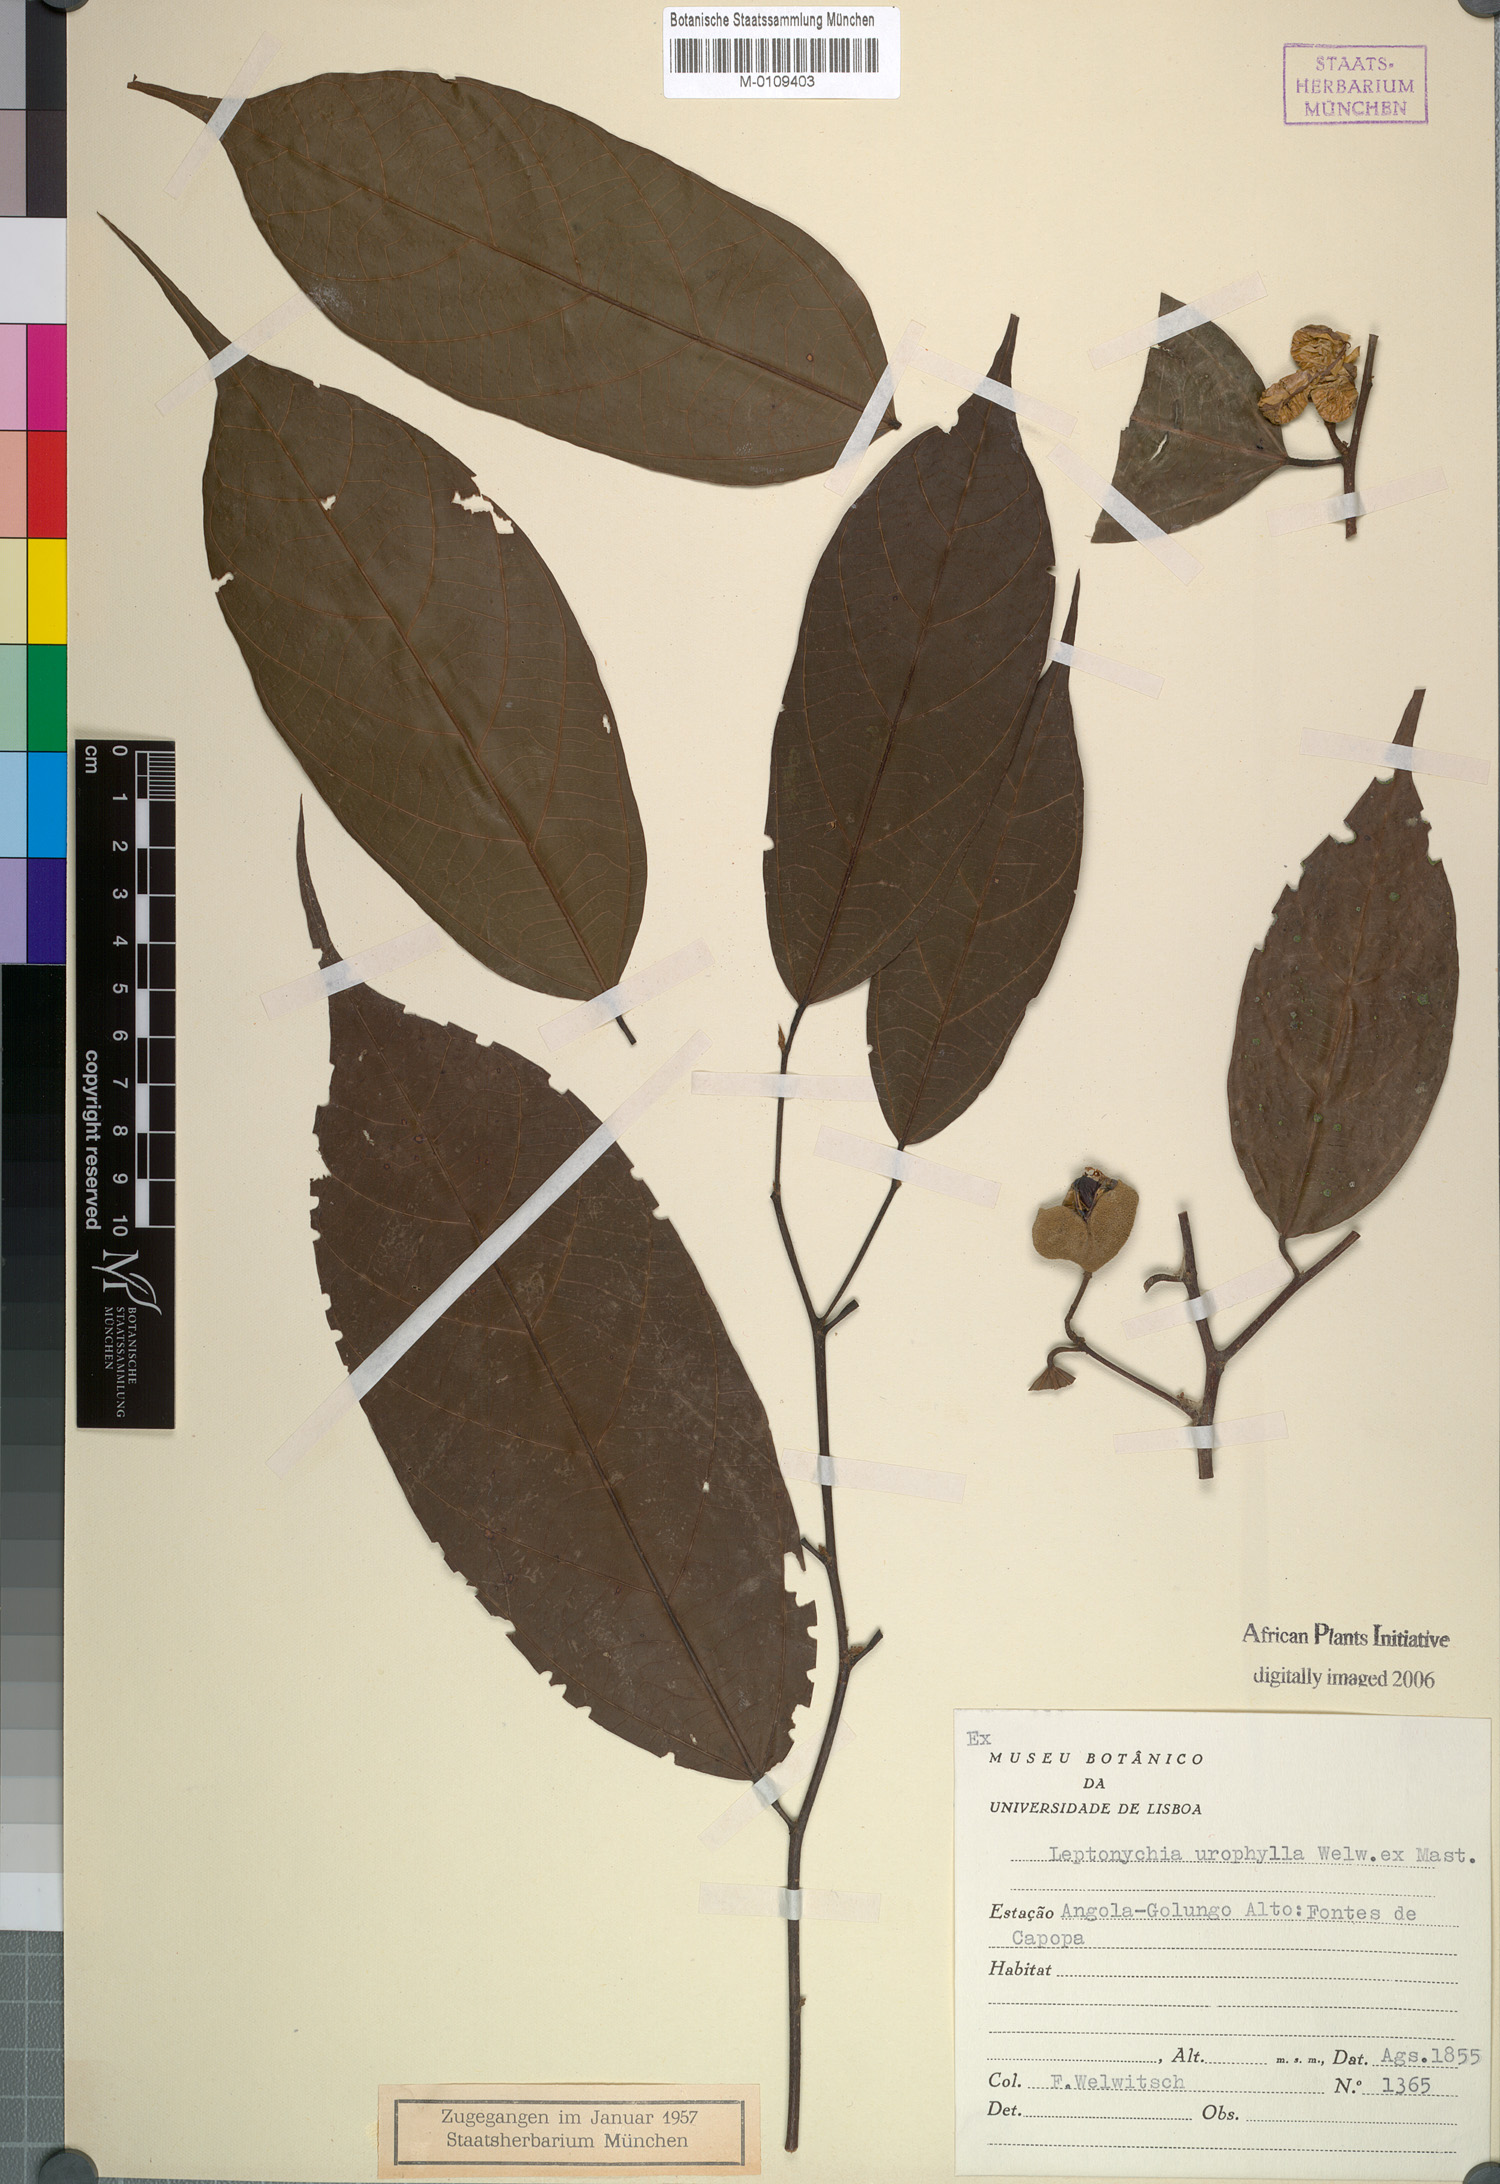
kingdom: Plantae
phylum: Tracheophyta
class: Magnoliopsida
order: Malvales
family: Malvaceae
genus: Leptonychia
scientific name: Leptonychia urophylla
